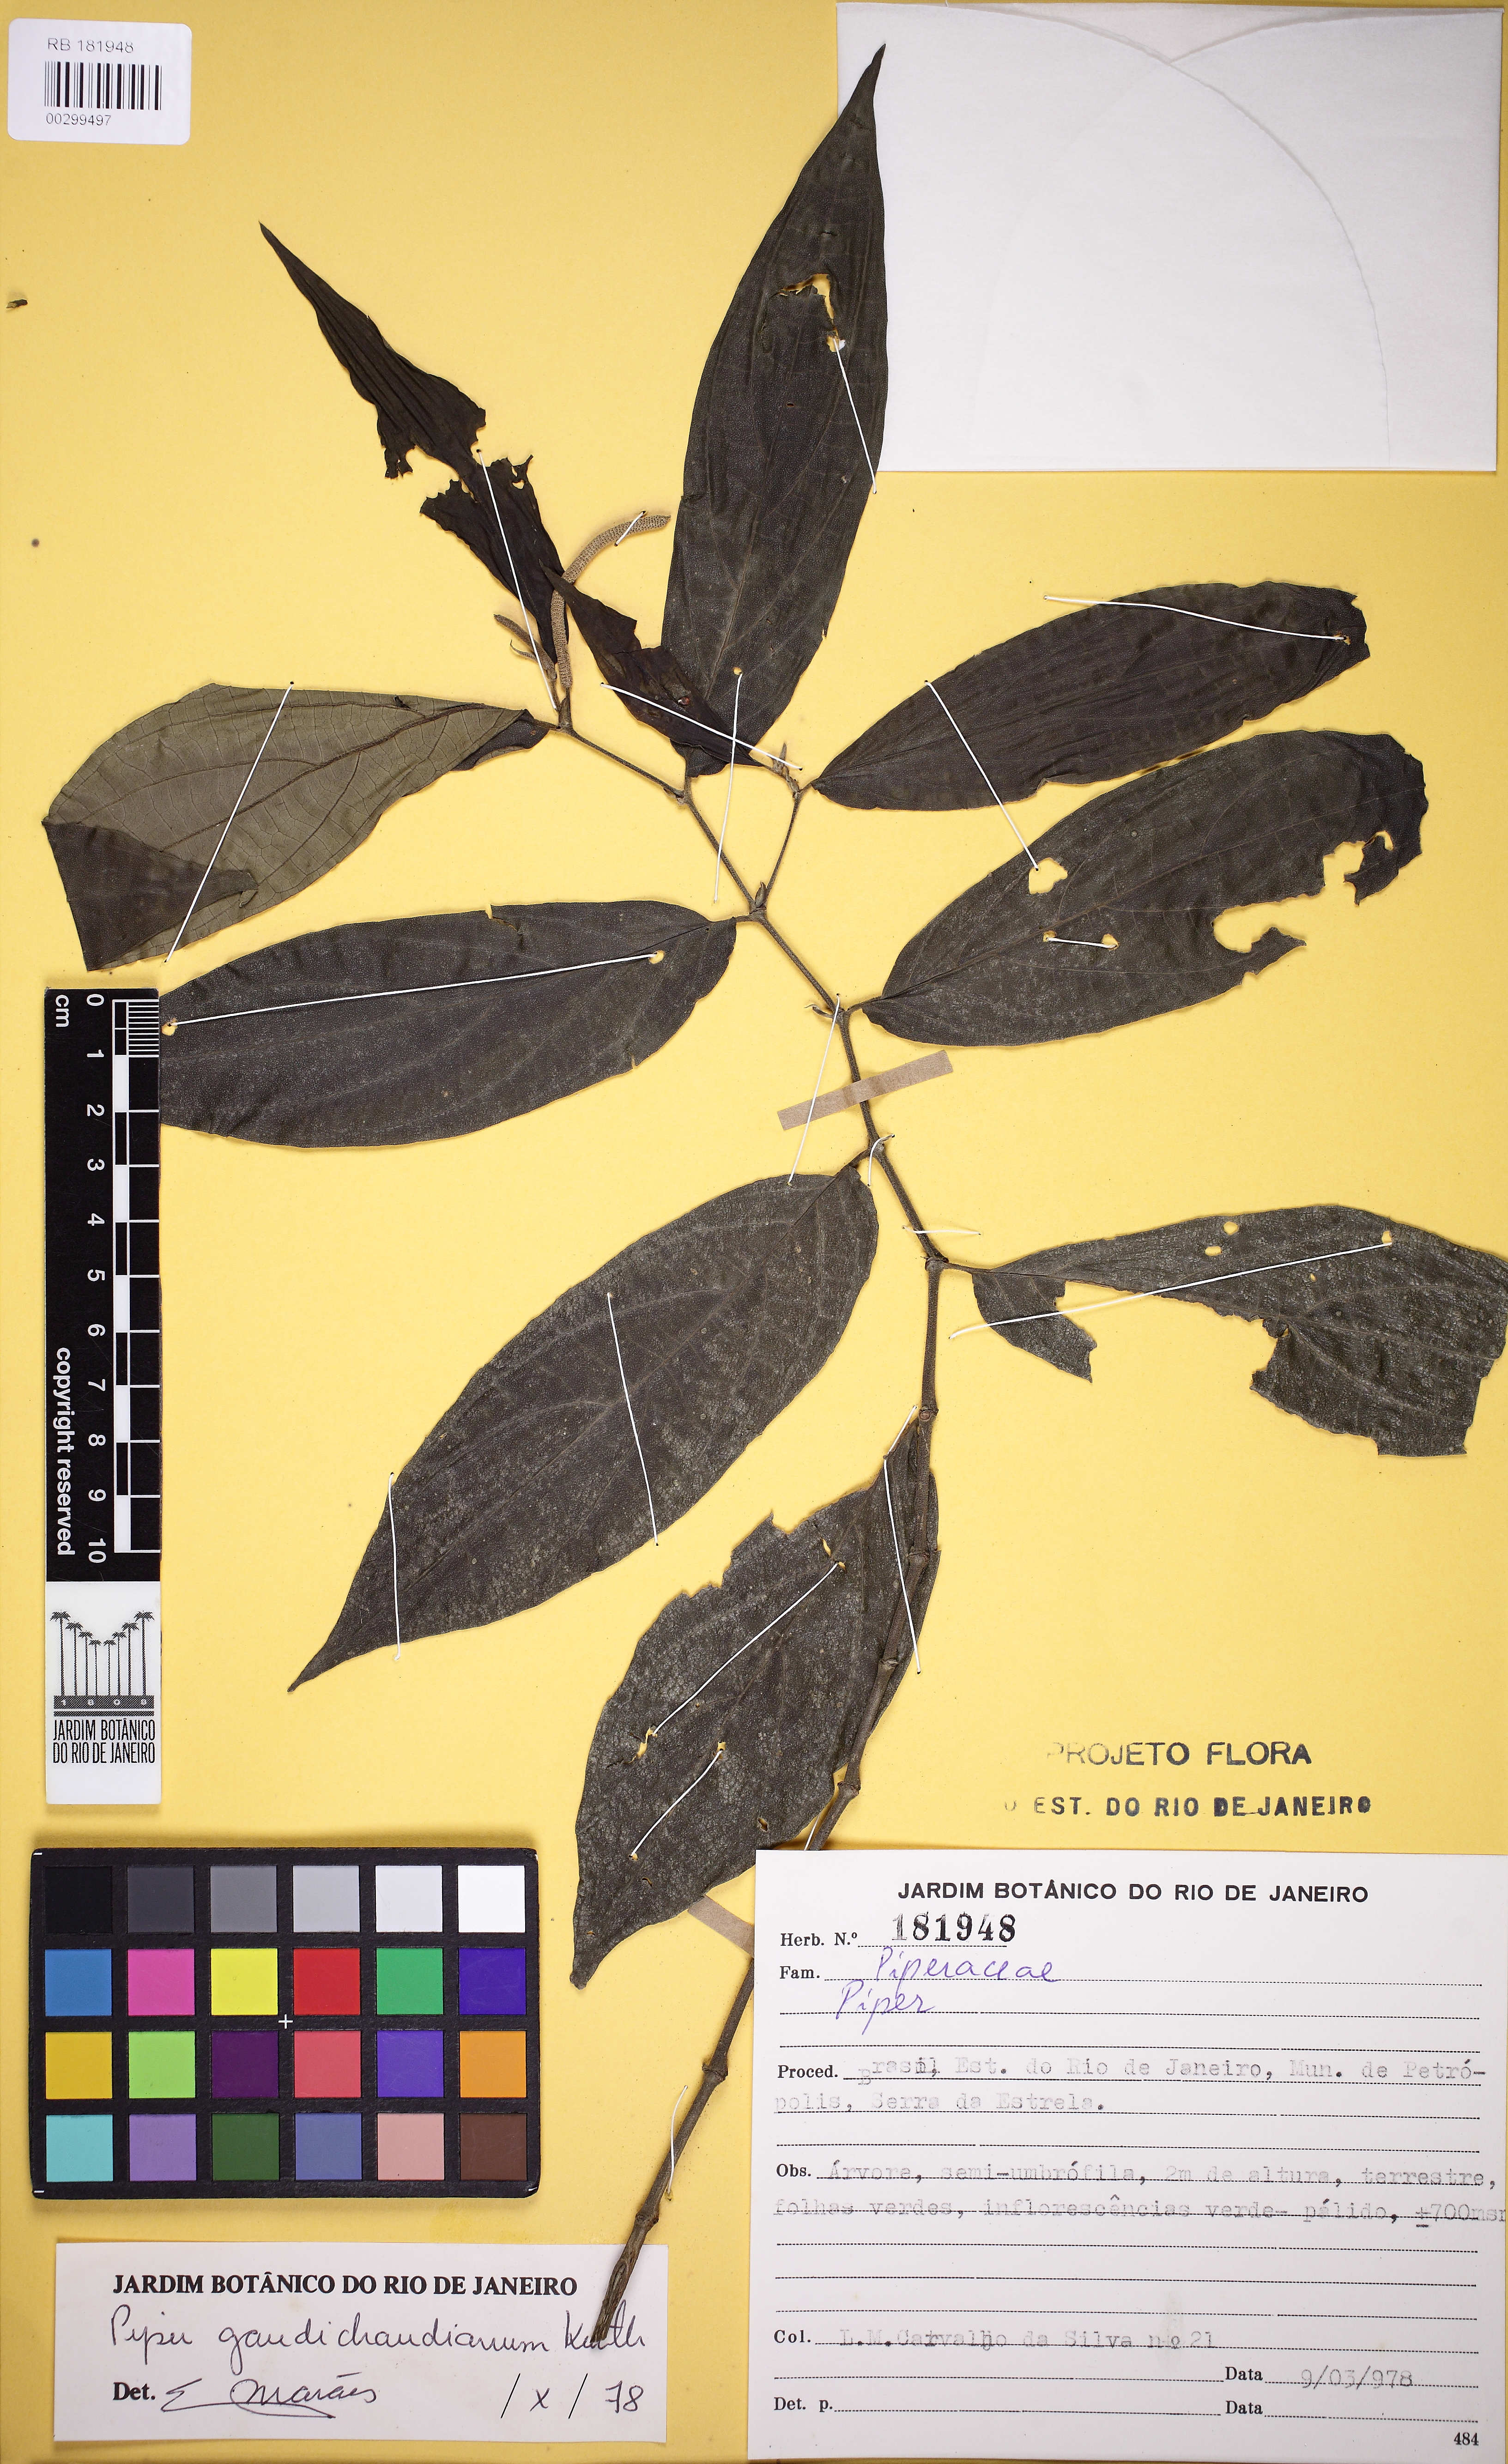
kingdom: Plantae
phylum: Tracheophyta
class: Magnoliopsida
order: Piperales
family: Piperaceae
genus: Piper
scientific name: Piper gaudichaudianum
